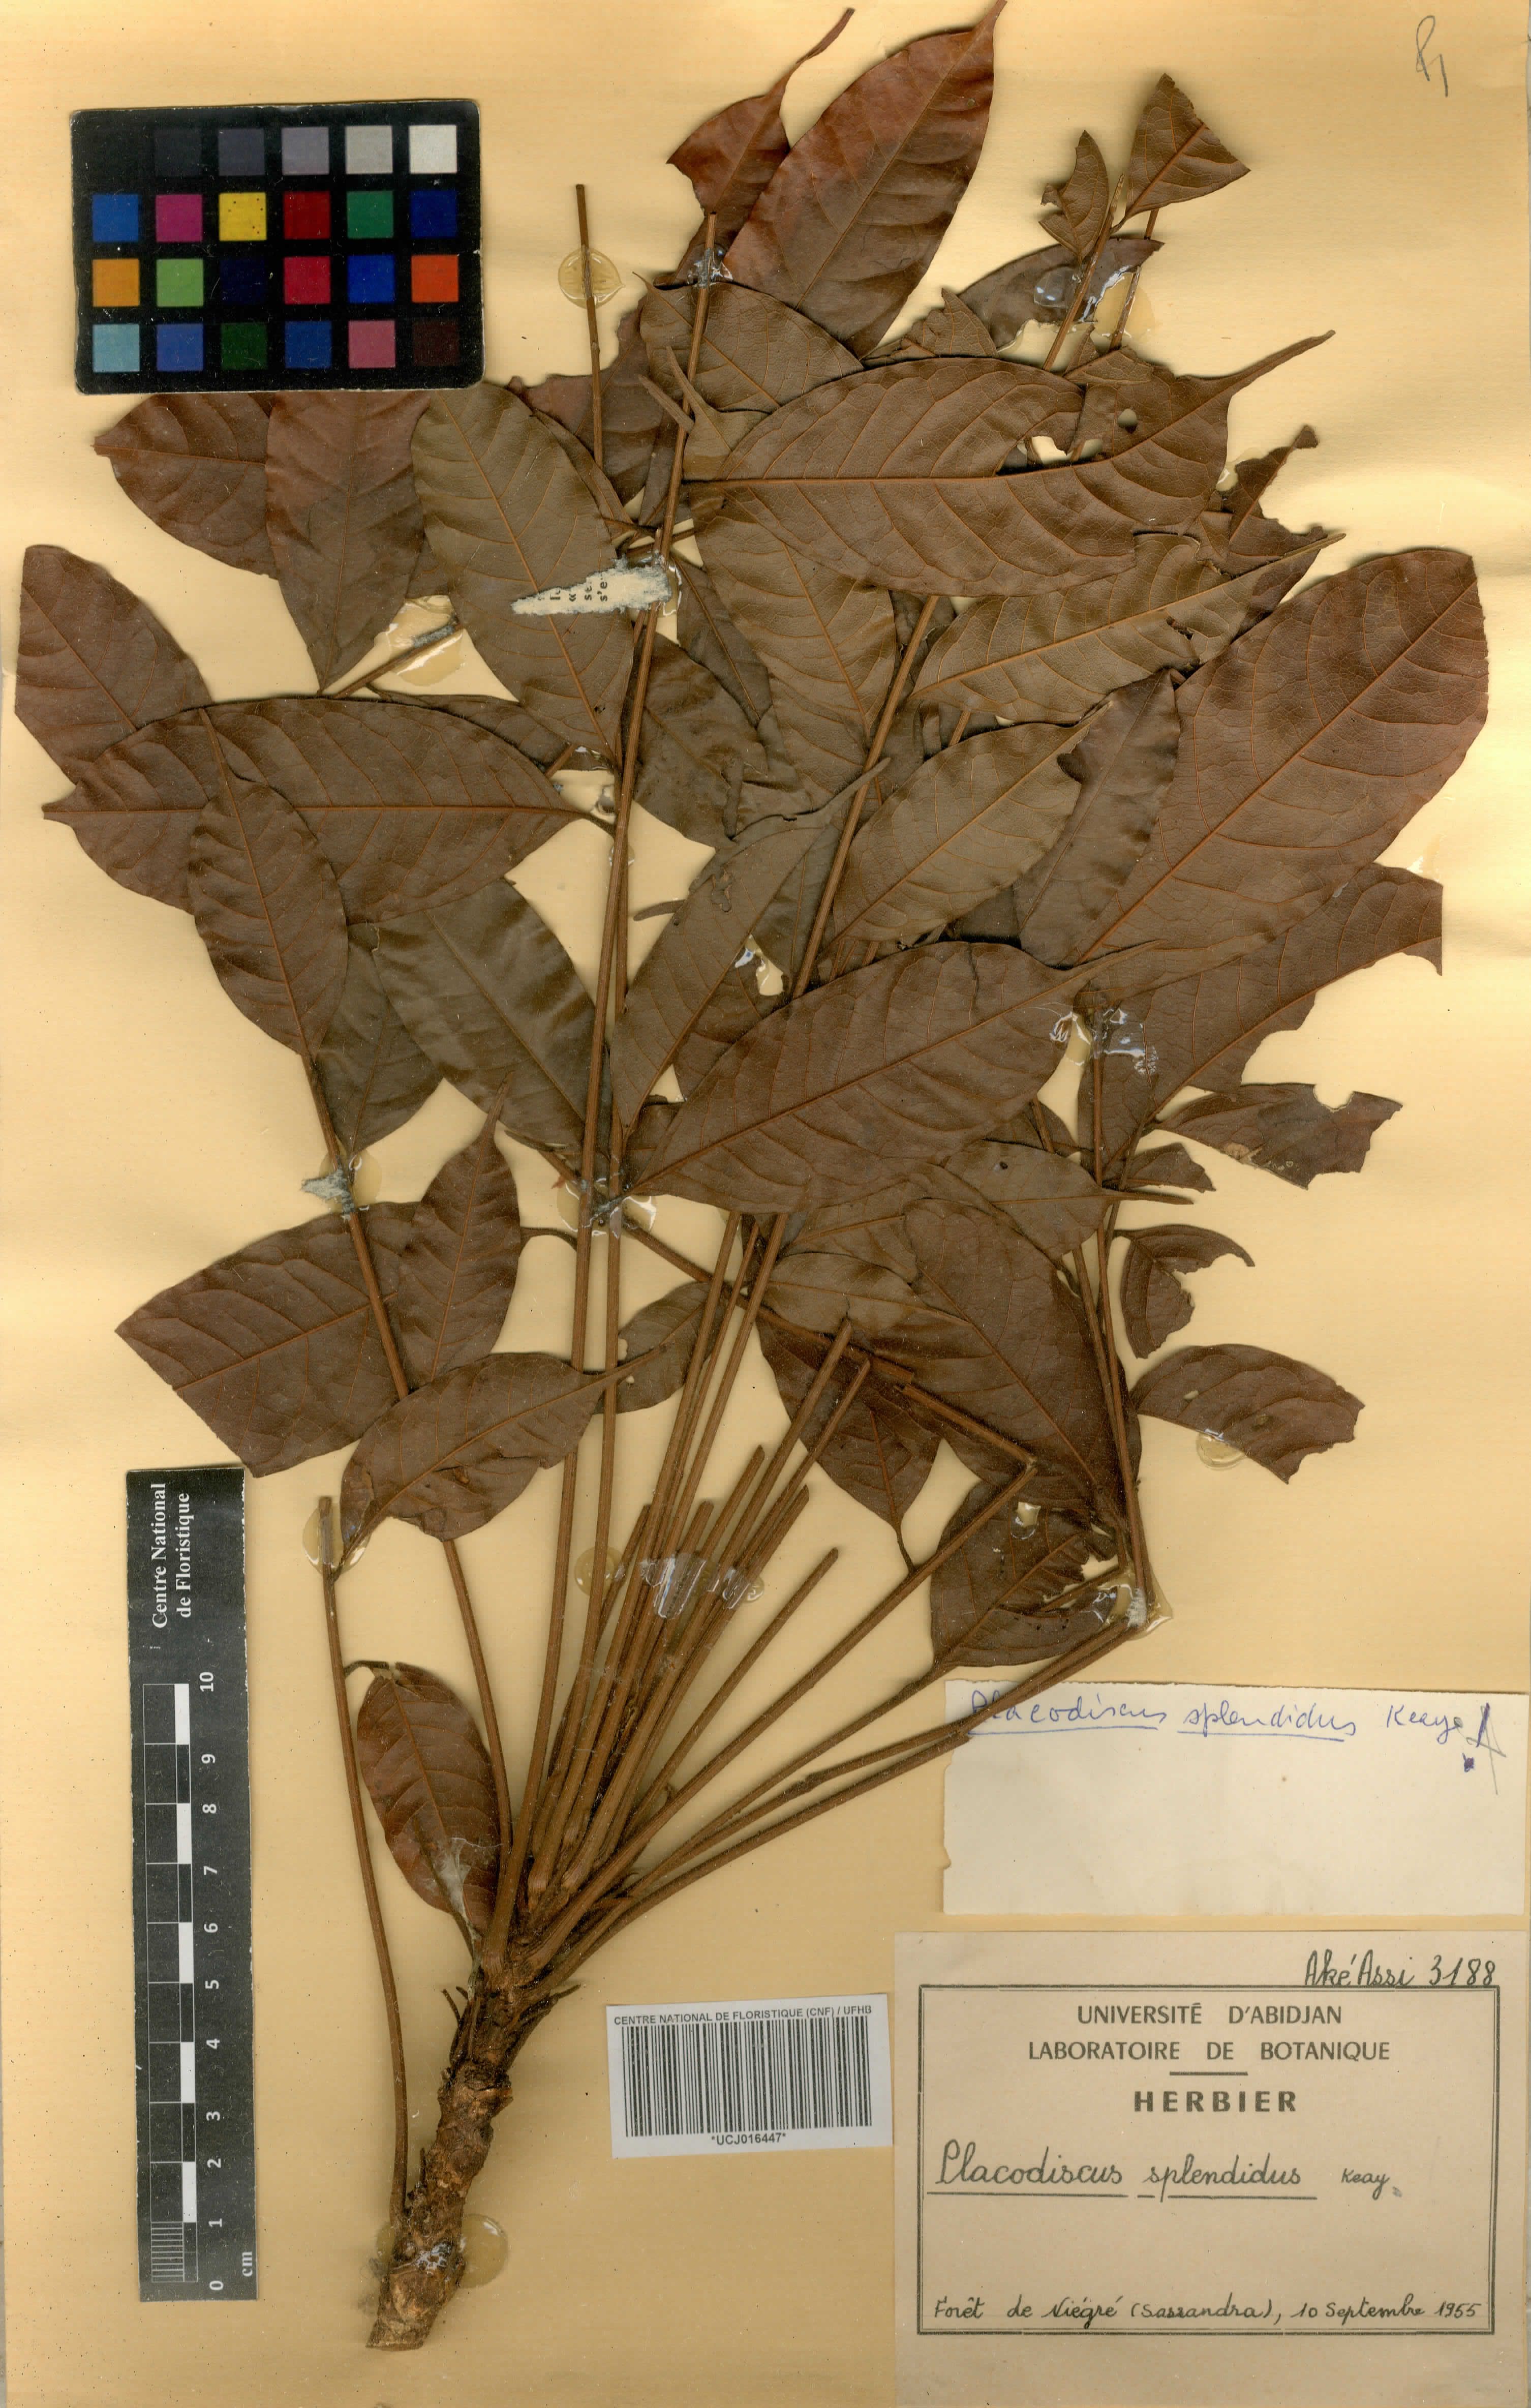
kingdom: Plantae
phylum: Tracheophyta
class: Magnoliopsida
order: Sapindales
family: Sapindaceae
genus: Placodiscus
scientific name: Placodiscus splendidus
